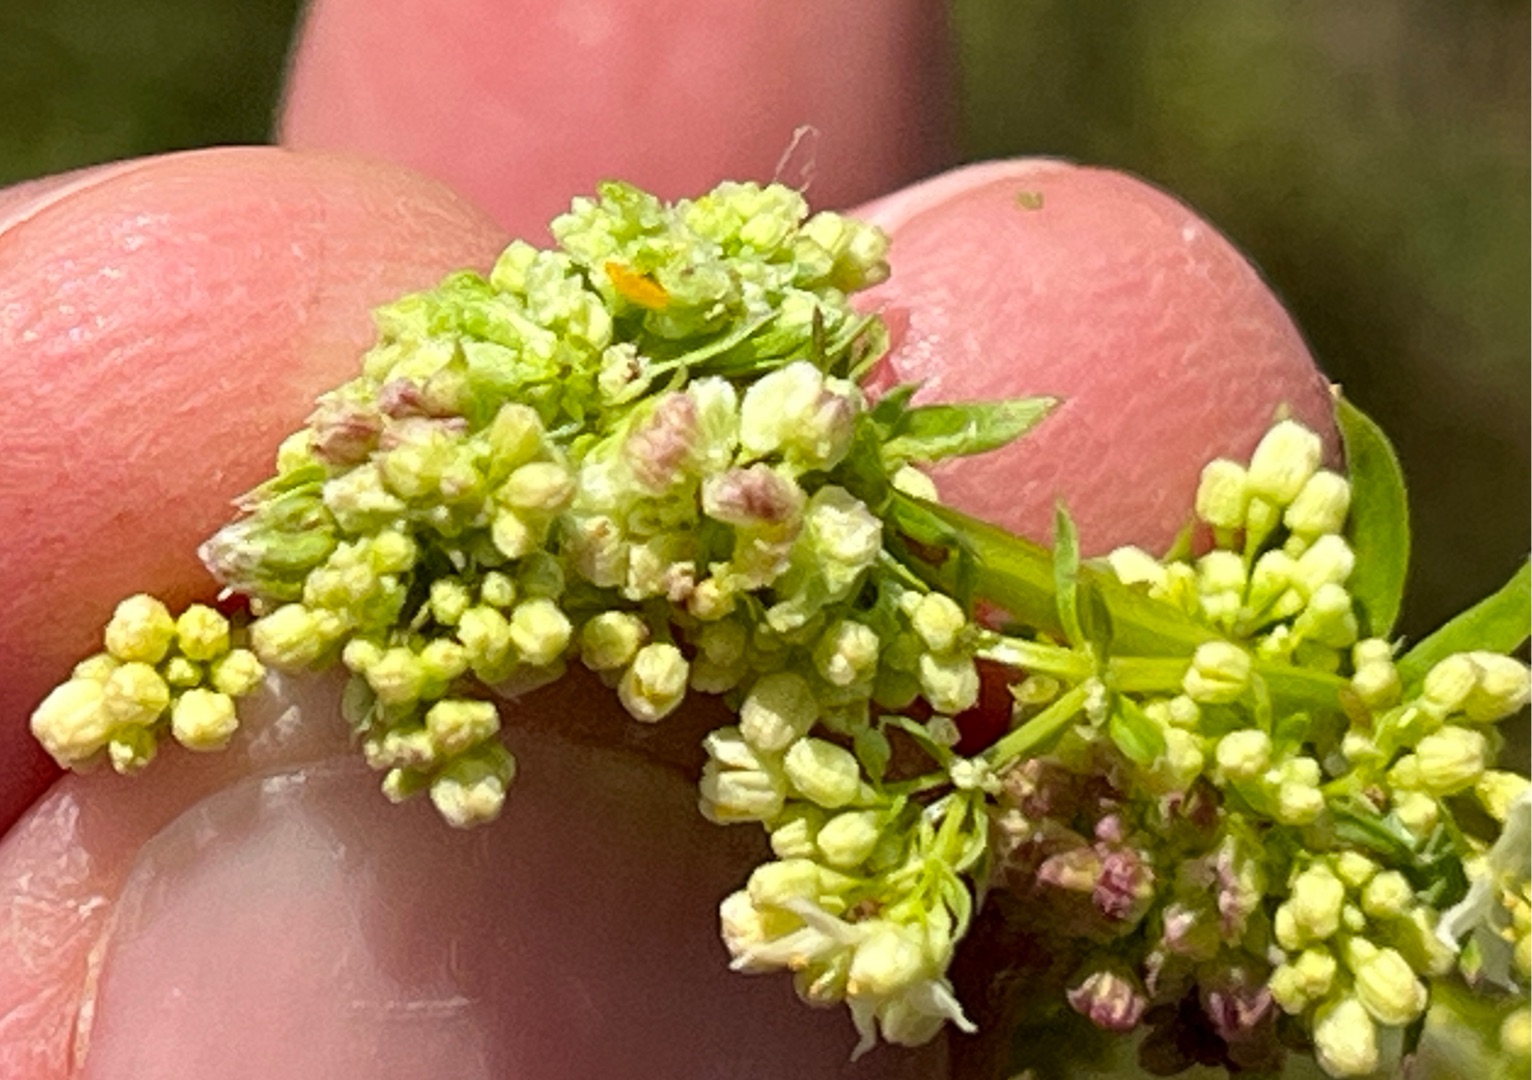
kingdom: Animalia
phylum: Arthropoda
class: Insecta
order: Diptera
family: Cecidomyiidae
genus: Contarinia
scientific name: Contarinia acrocecis
